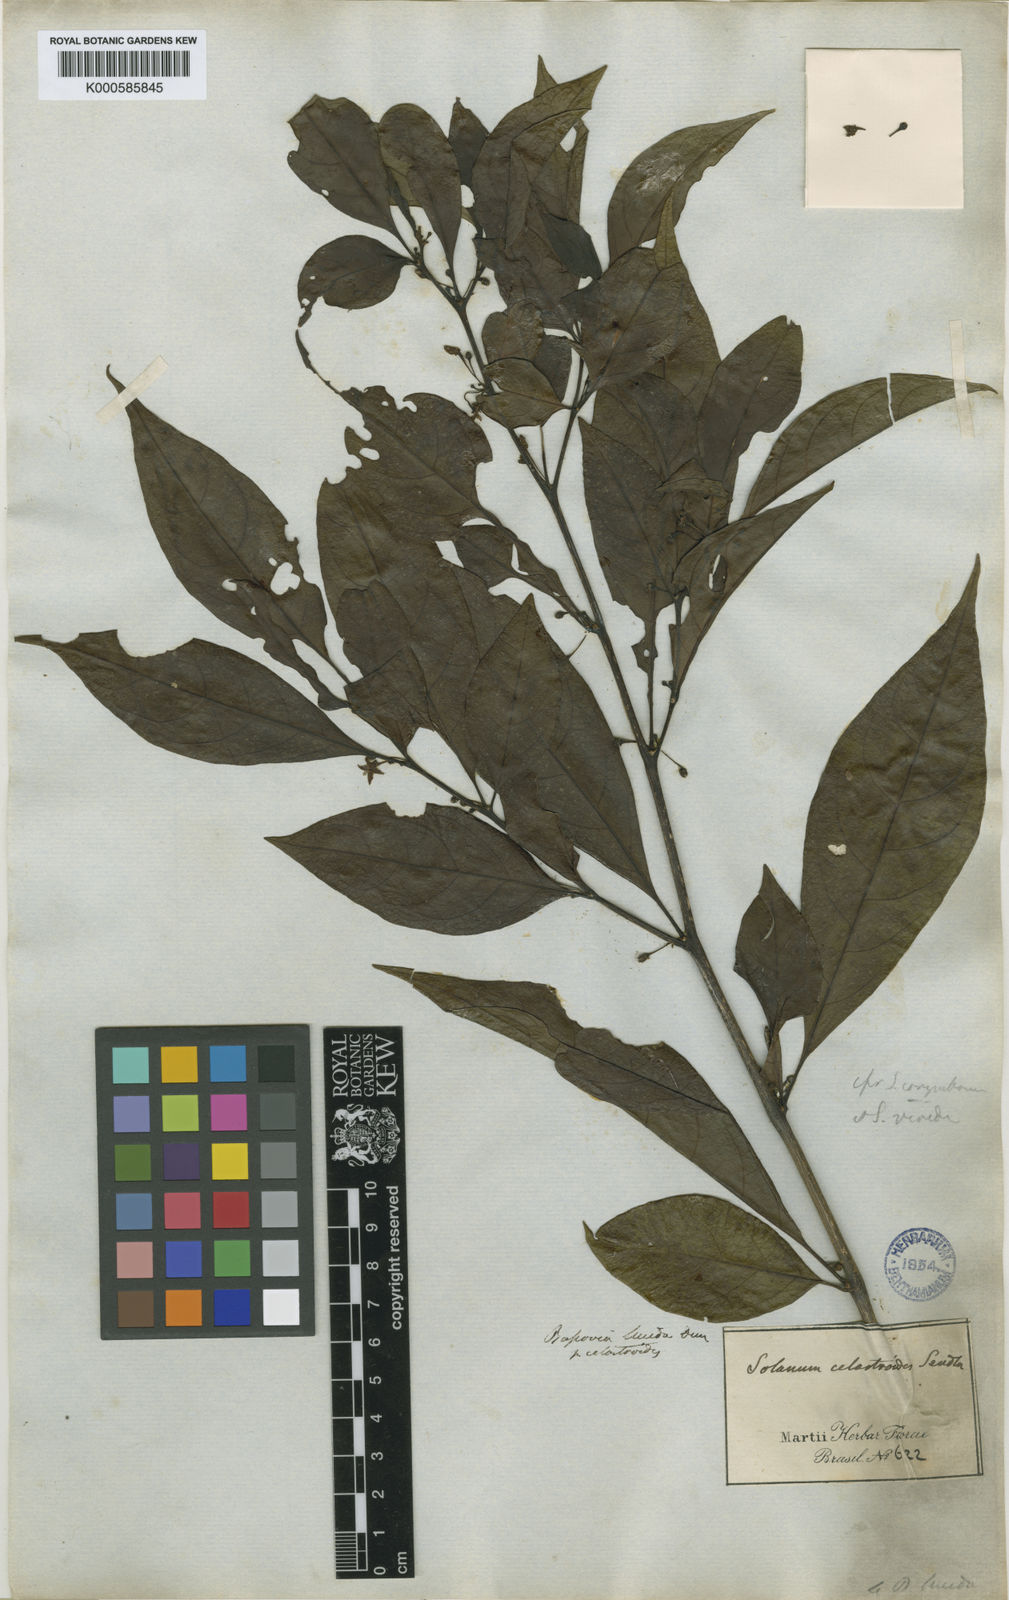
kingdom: Plantae
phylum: Tracheophyta
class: Magnoliopsida
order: Solanales
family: Solanaceae
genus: Athenaea
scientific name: Athenaea fasciculata
